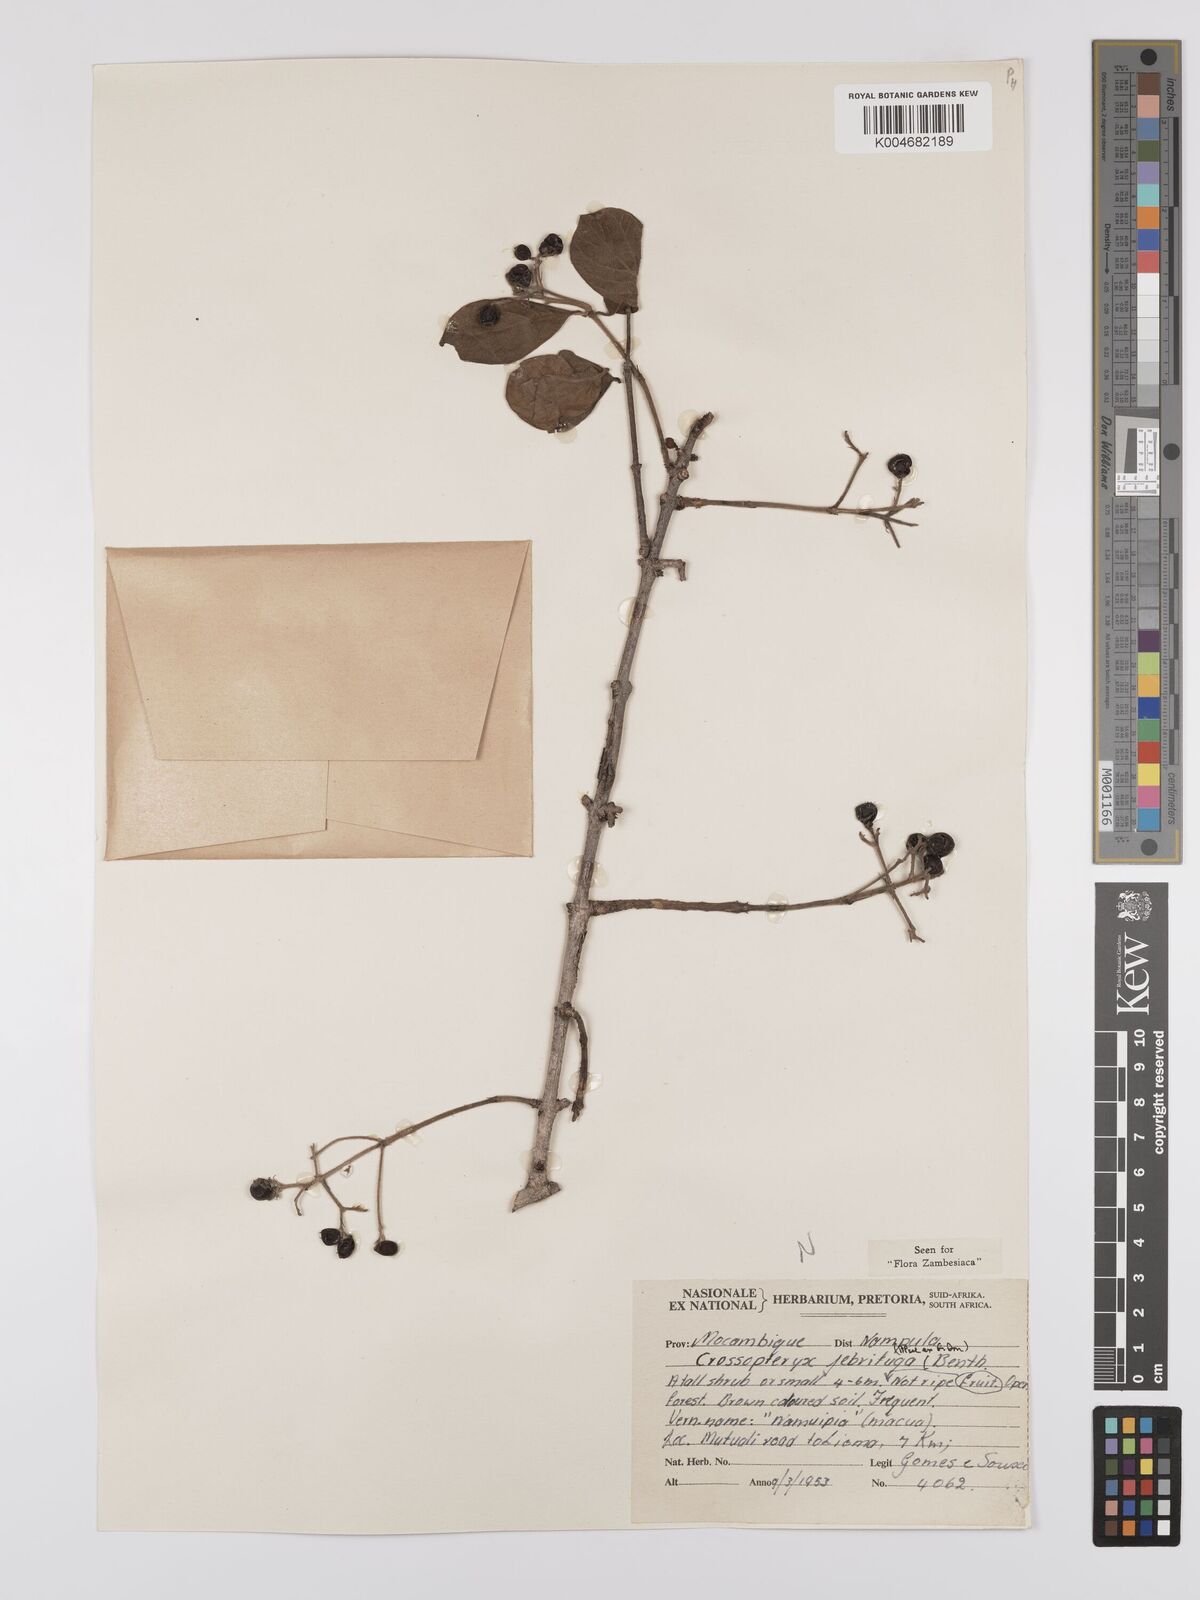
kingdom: Plantae
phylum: Tracheophyta
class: Magnoliopsida
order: Gentianales
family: Rubiaceae
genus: Crossopteryx
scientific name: Crossopteryx febrifuga
